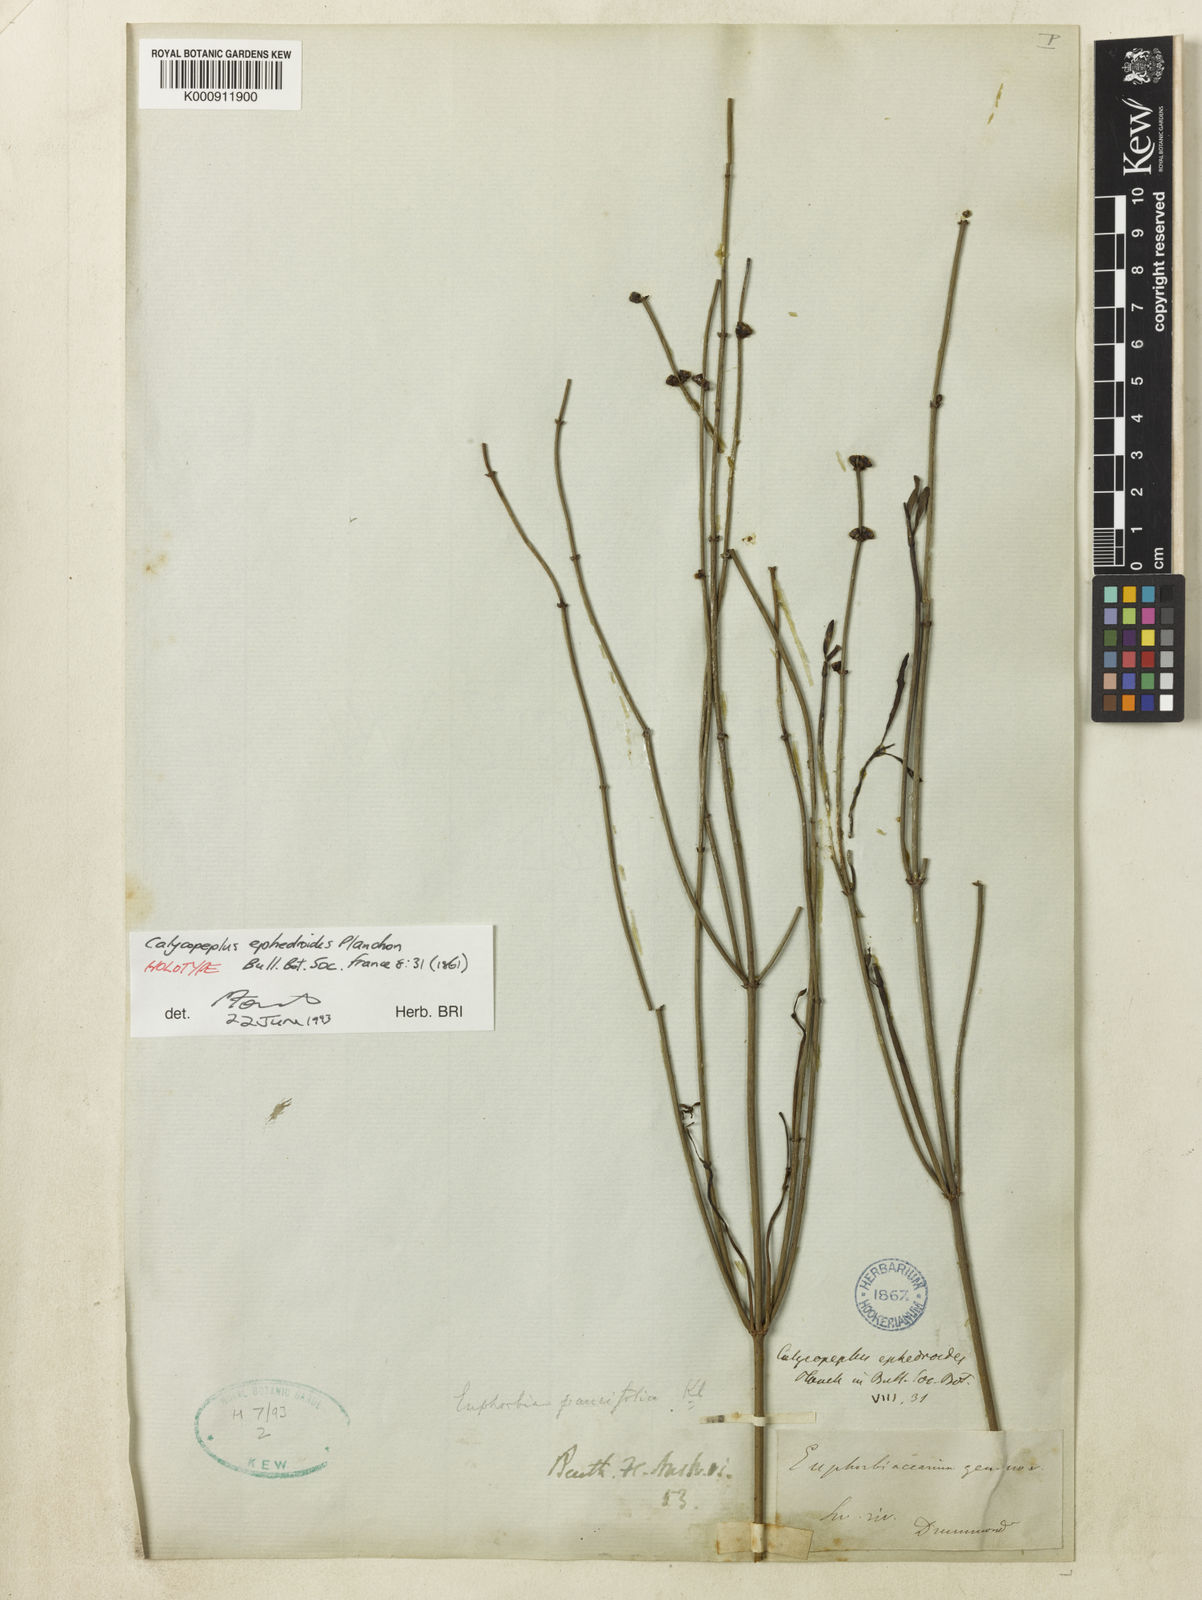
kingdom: Plantae
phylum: Tracheophyta
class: Magnoliopsida
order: Malpighiales
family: Euphorbiaceae
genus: Calycopeplus
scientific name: Calycopeplus paucifolius
